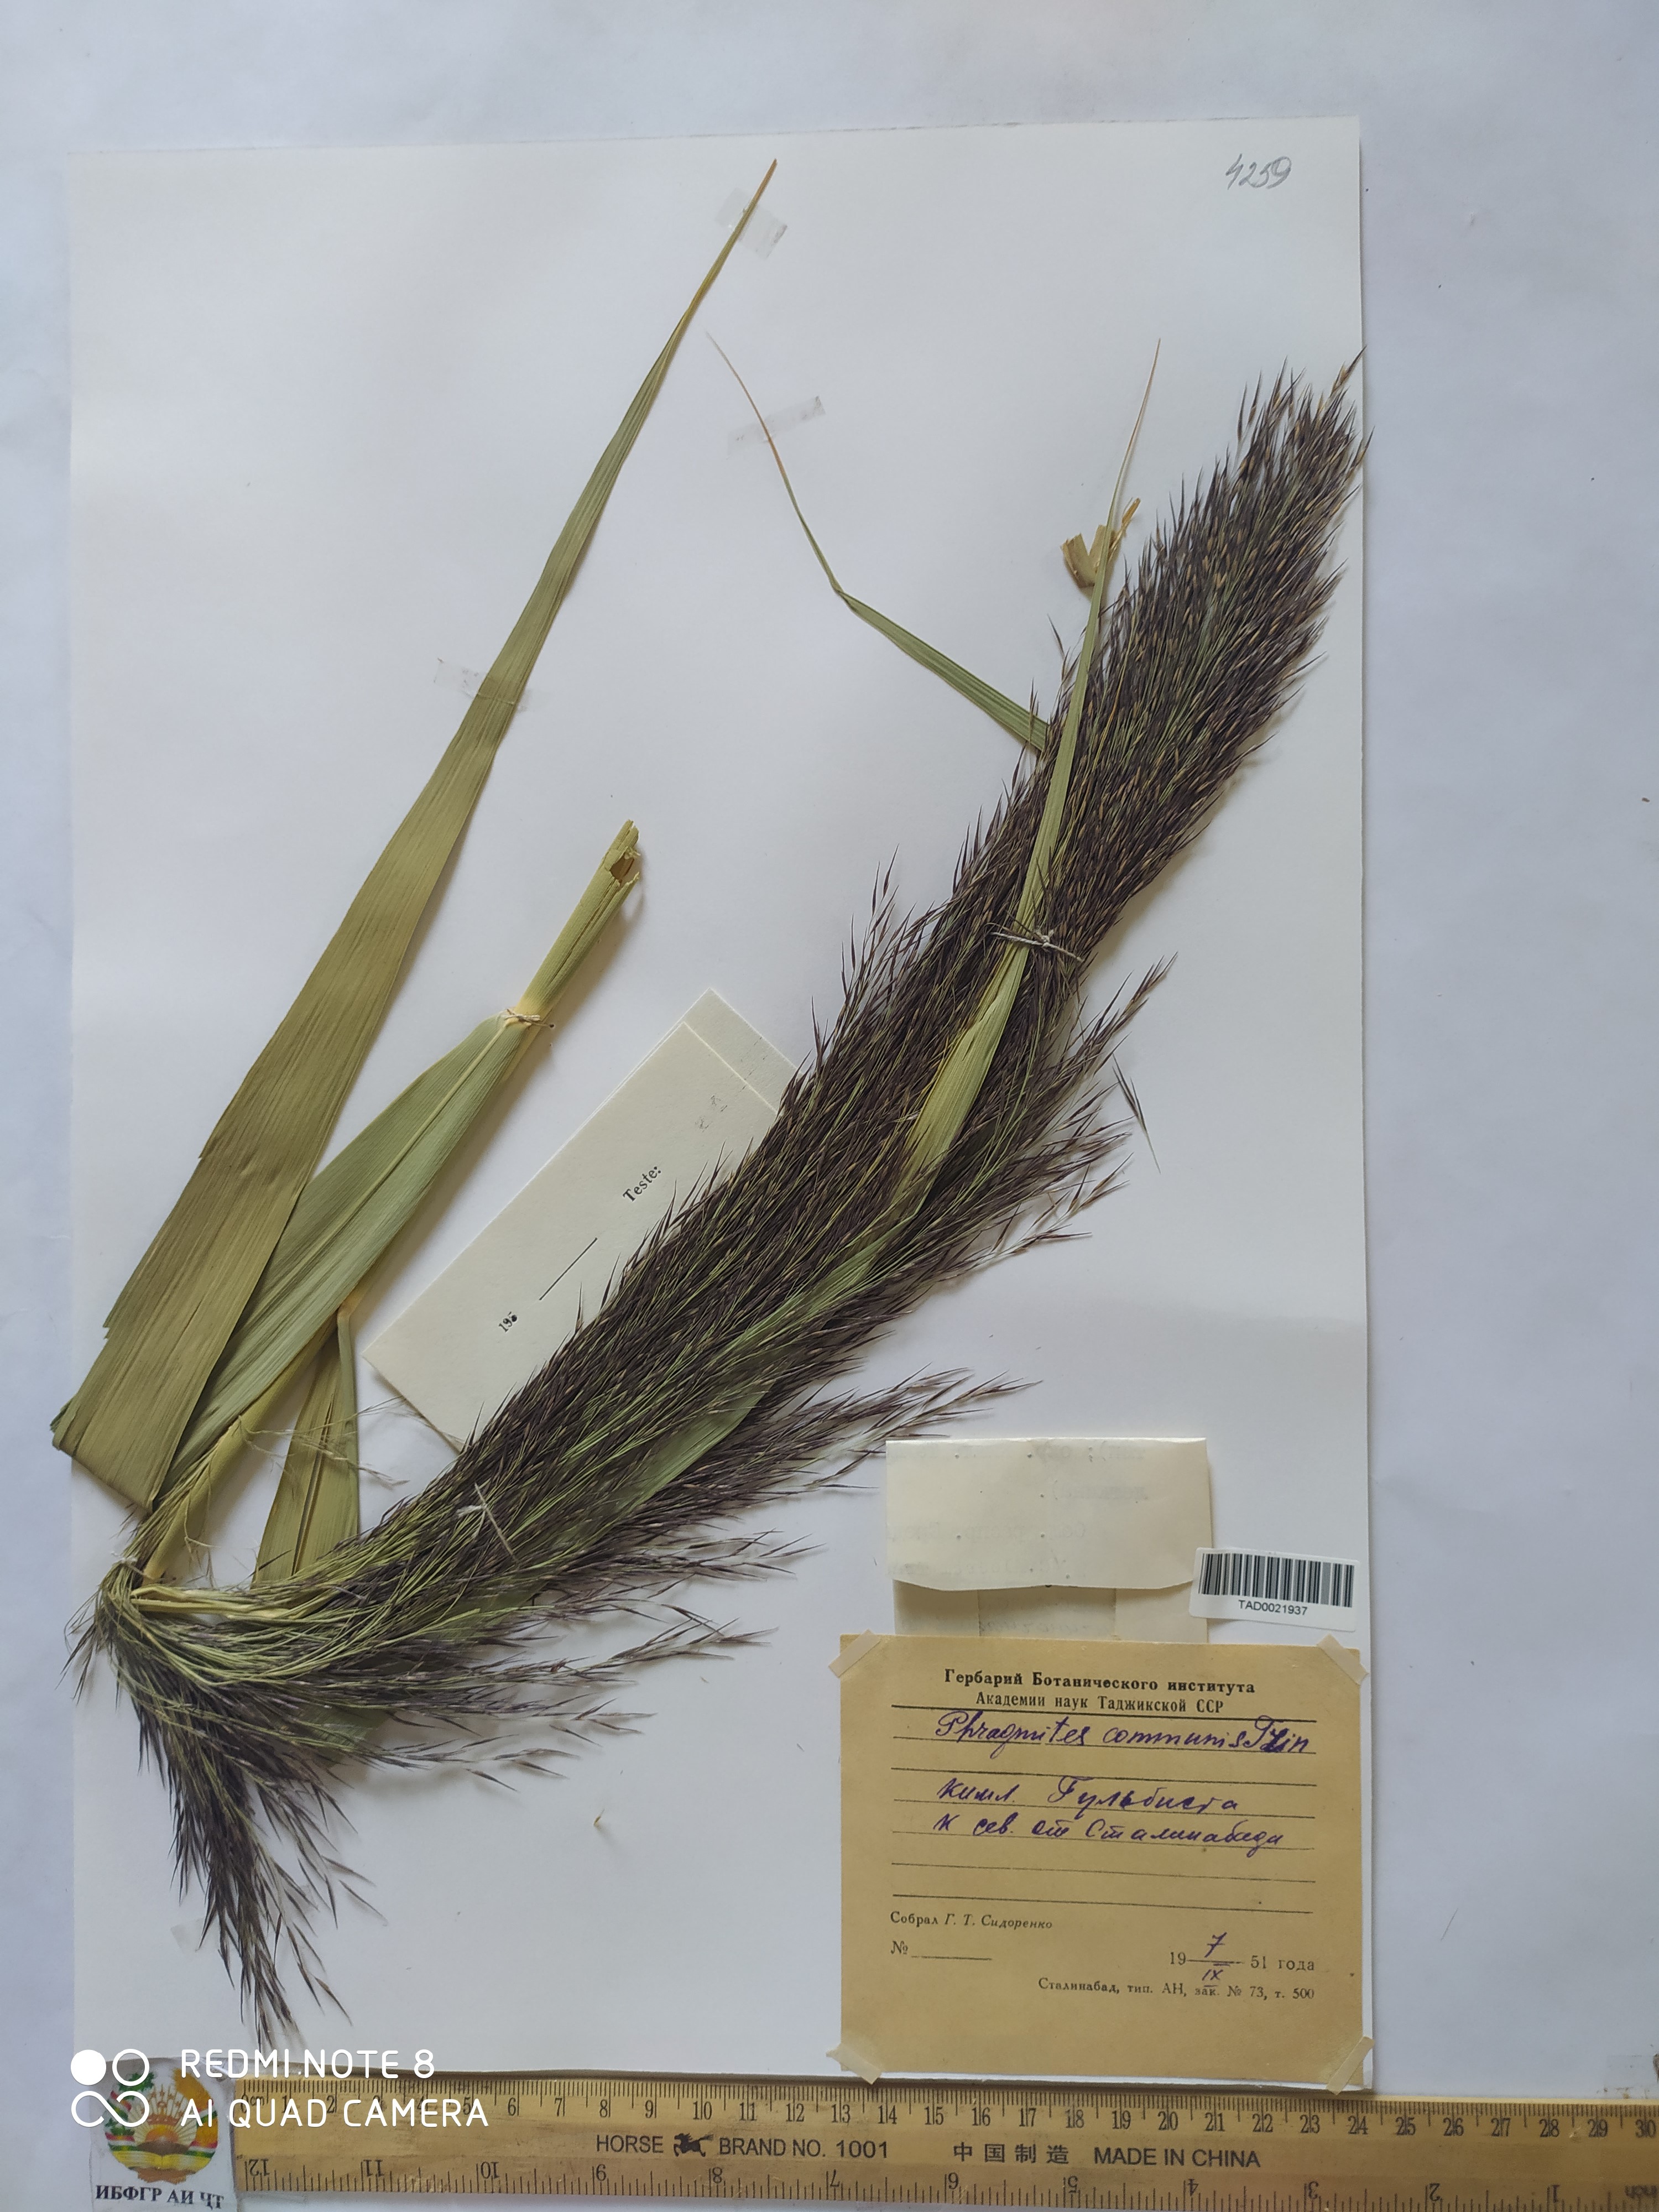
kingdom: Plantae
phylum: Tracheophyta
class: Liliopsida
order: Poales
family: Poaceae
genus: Phragmites
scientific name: Phragmites australis
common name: Common reed
